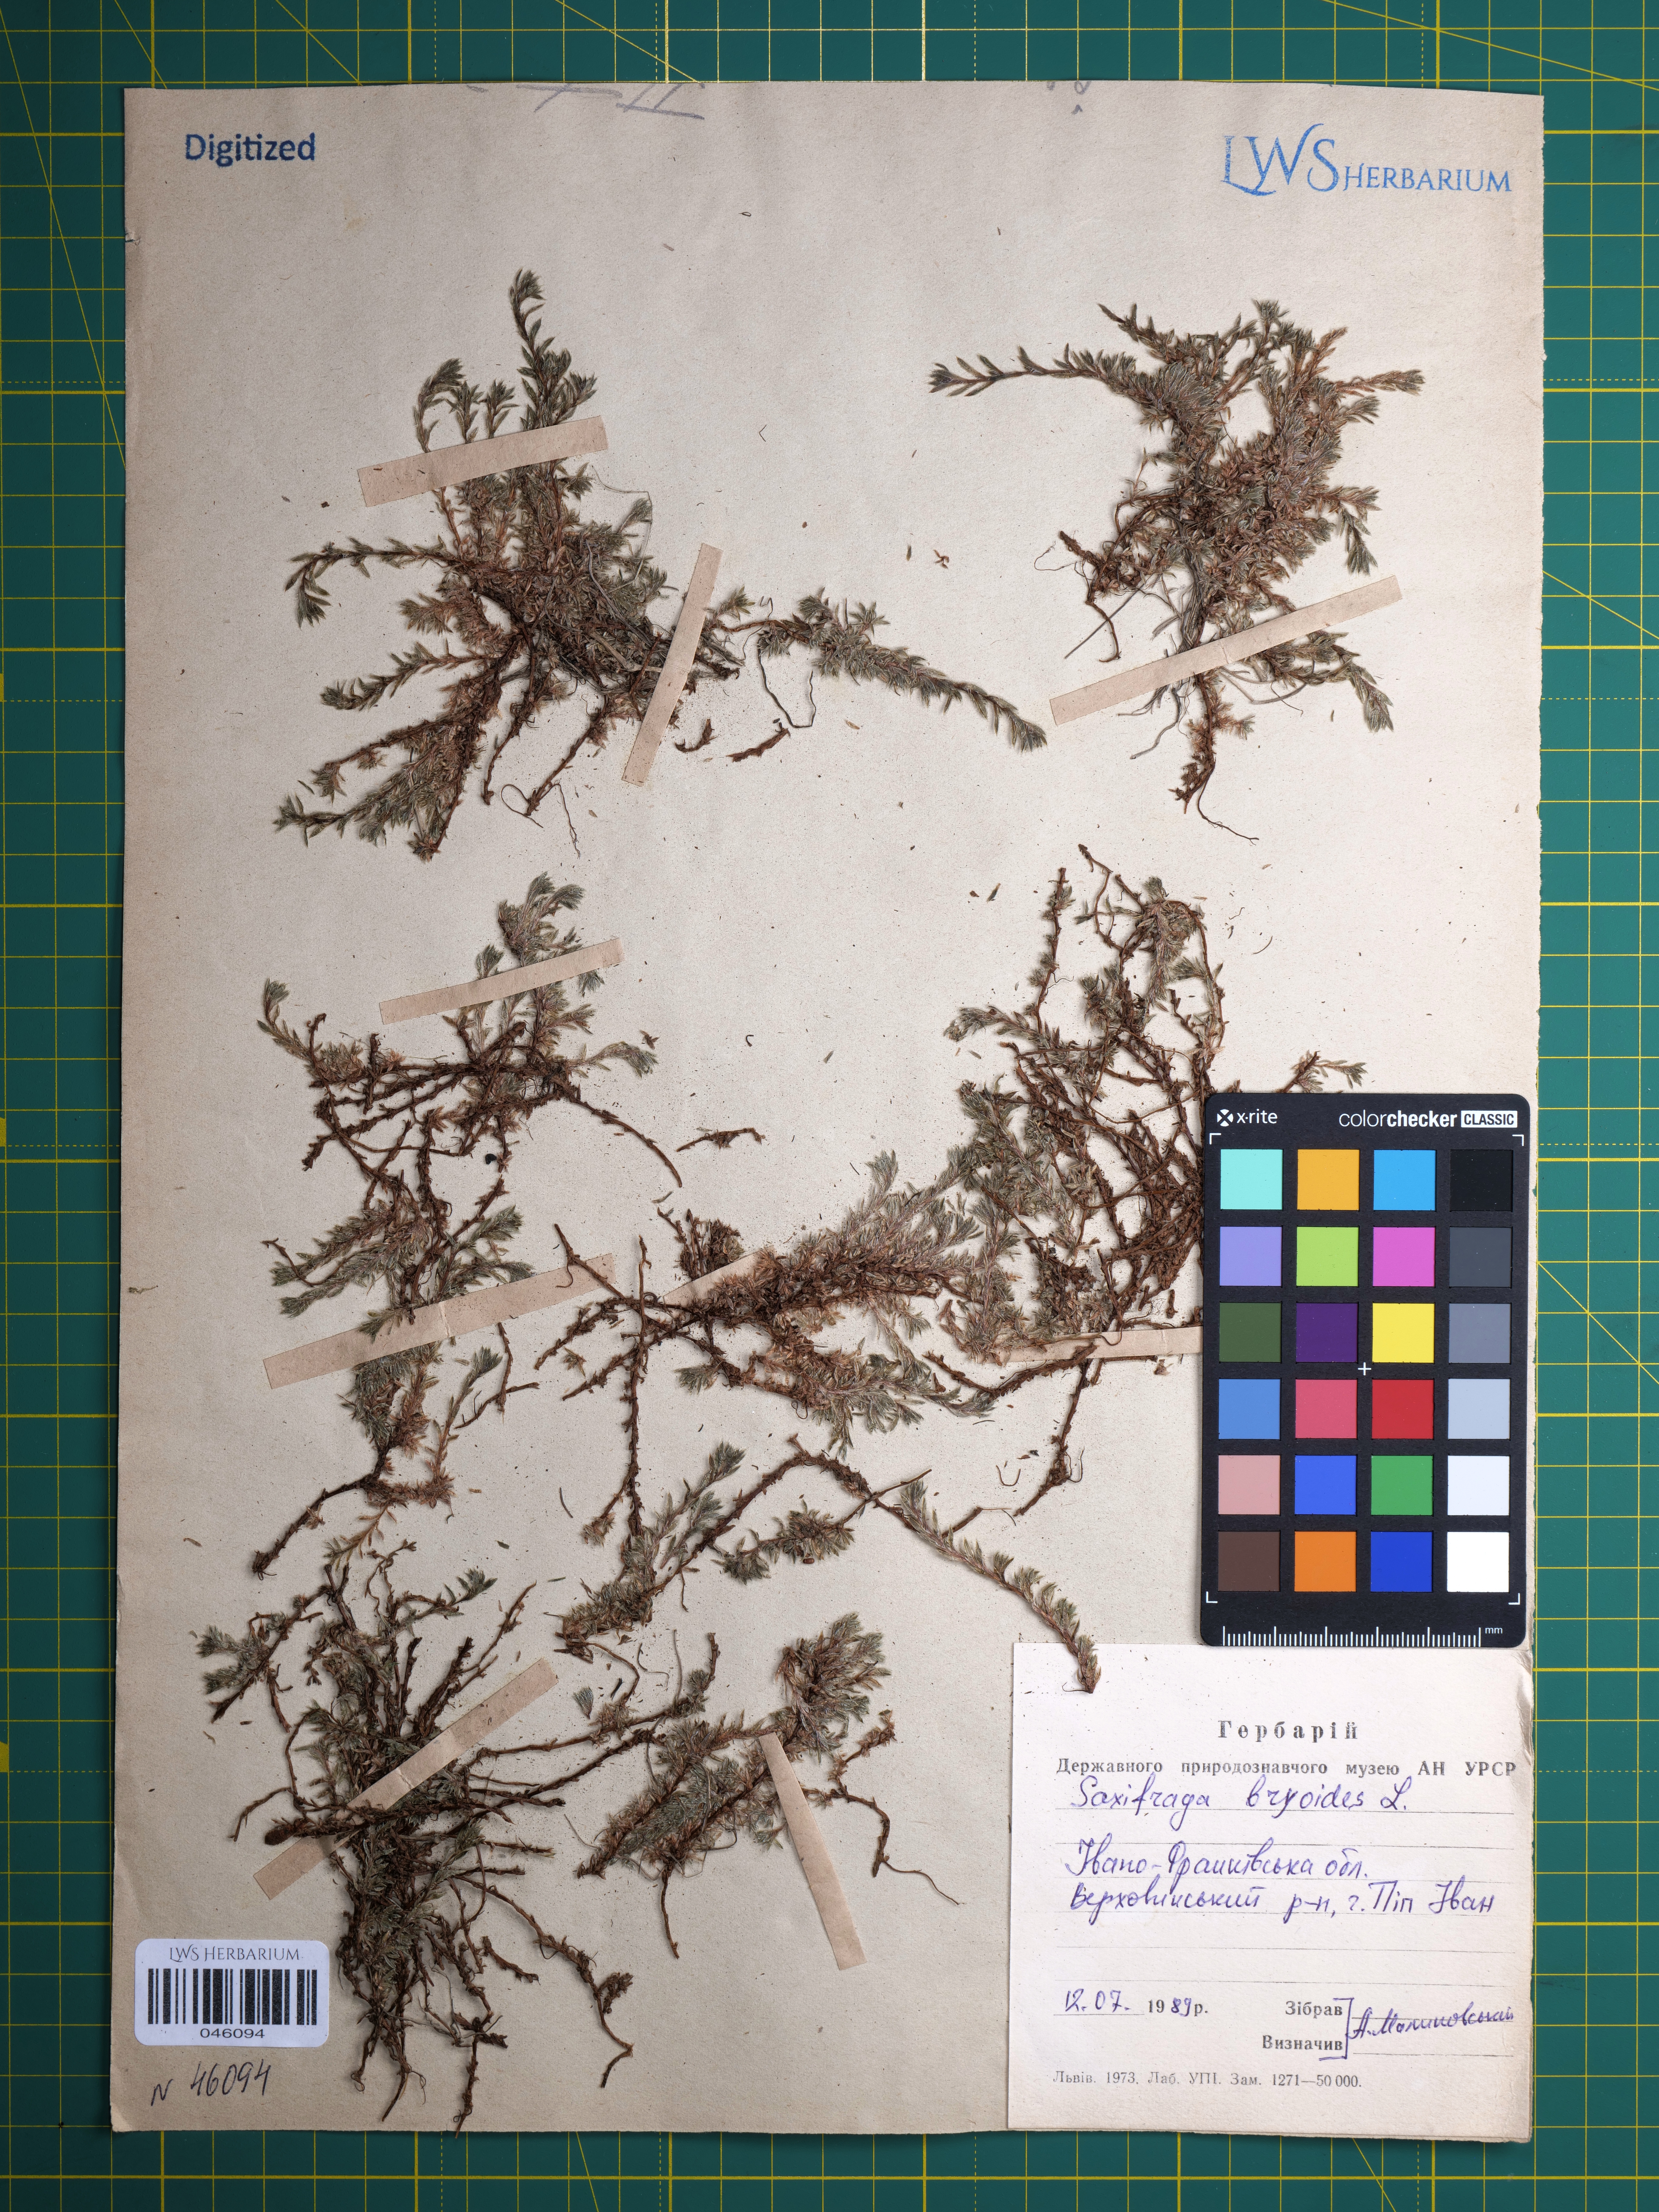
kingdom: Plantae
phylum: Tracheophyta
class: Magnoliopsida
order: Saxifragales
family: Saxifragaceae
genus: Saxifraga
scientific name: Saxifraga bryoides
